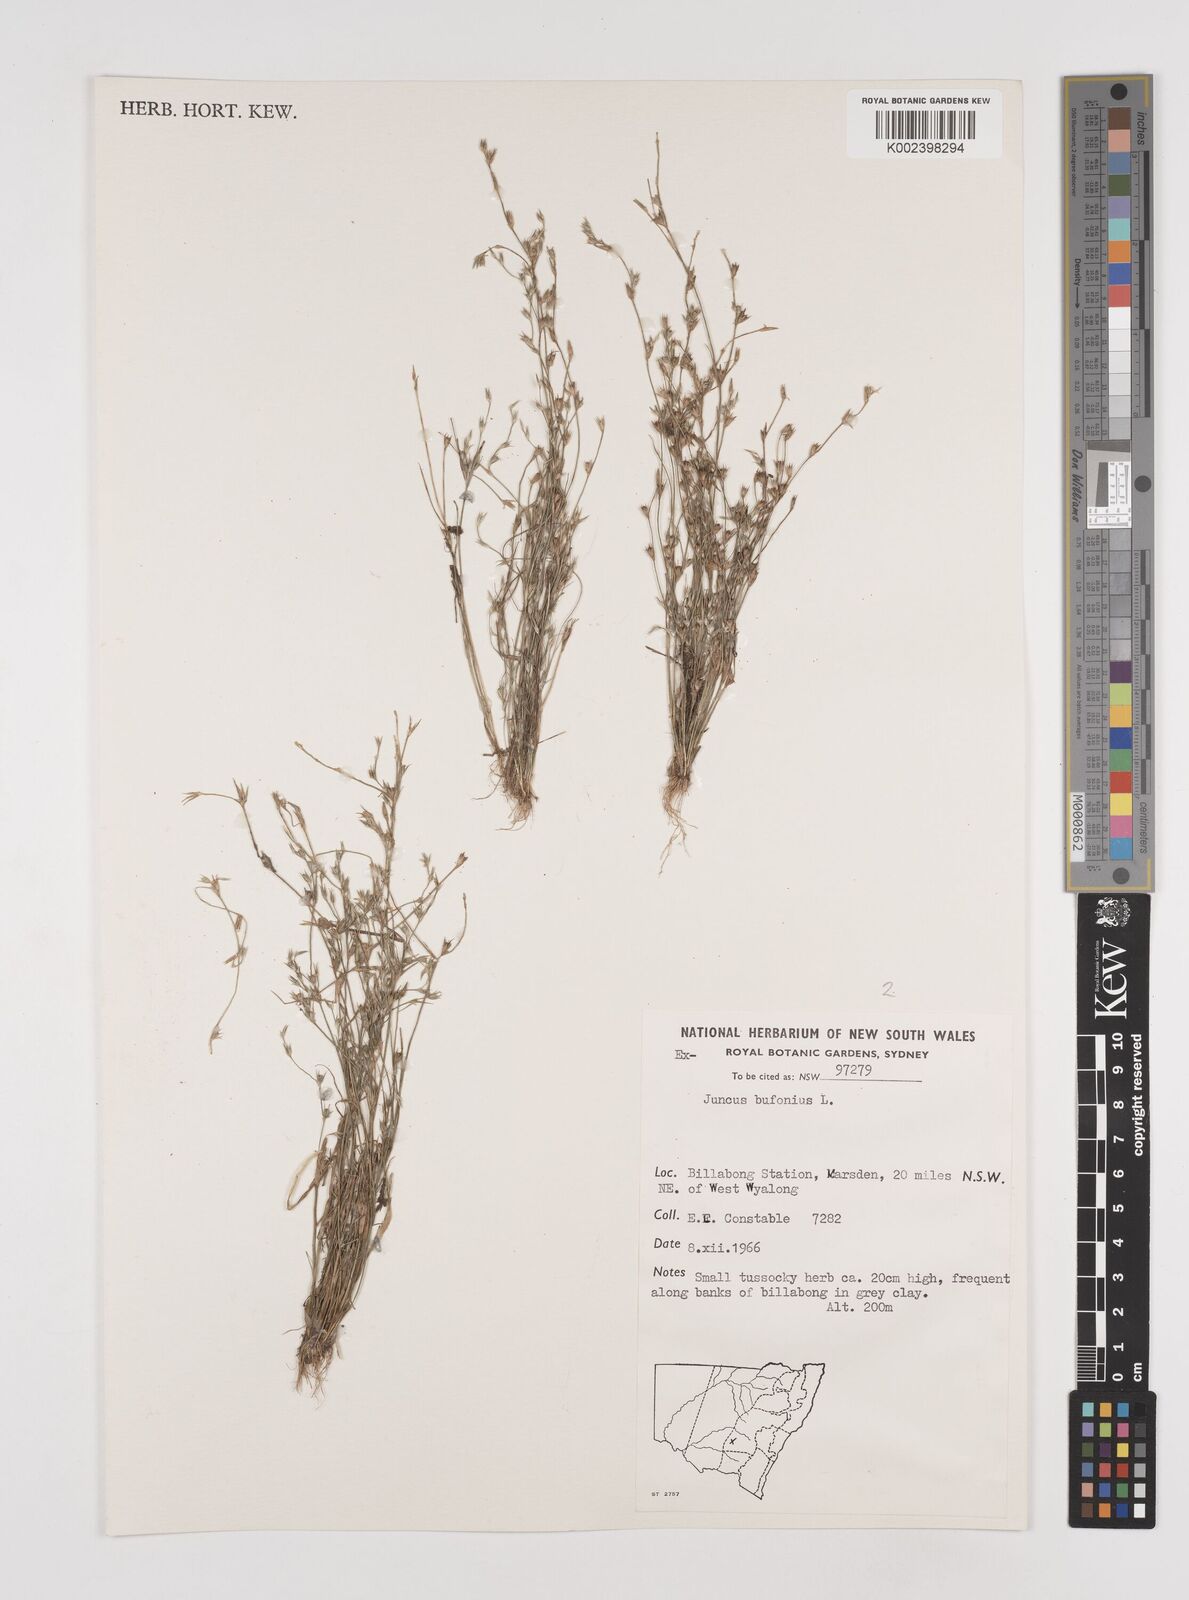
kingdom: Plantae
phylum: Tracheophyta
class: Liliopsida
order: Poales
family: Juncaceae
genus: Juncus
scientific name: Juncus ranarius
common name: Frog rush
